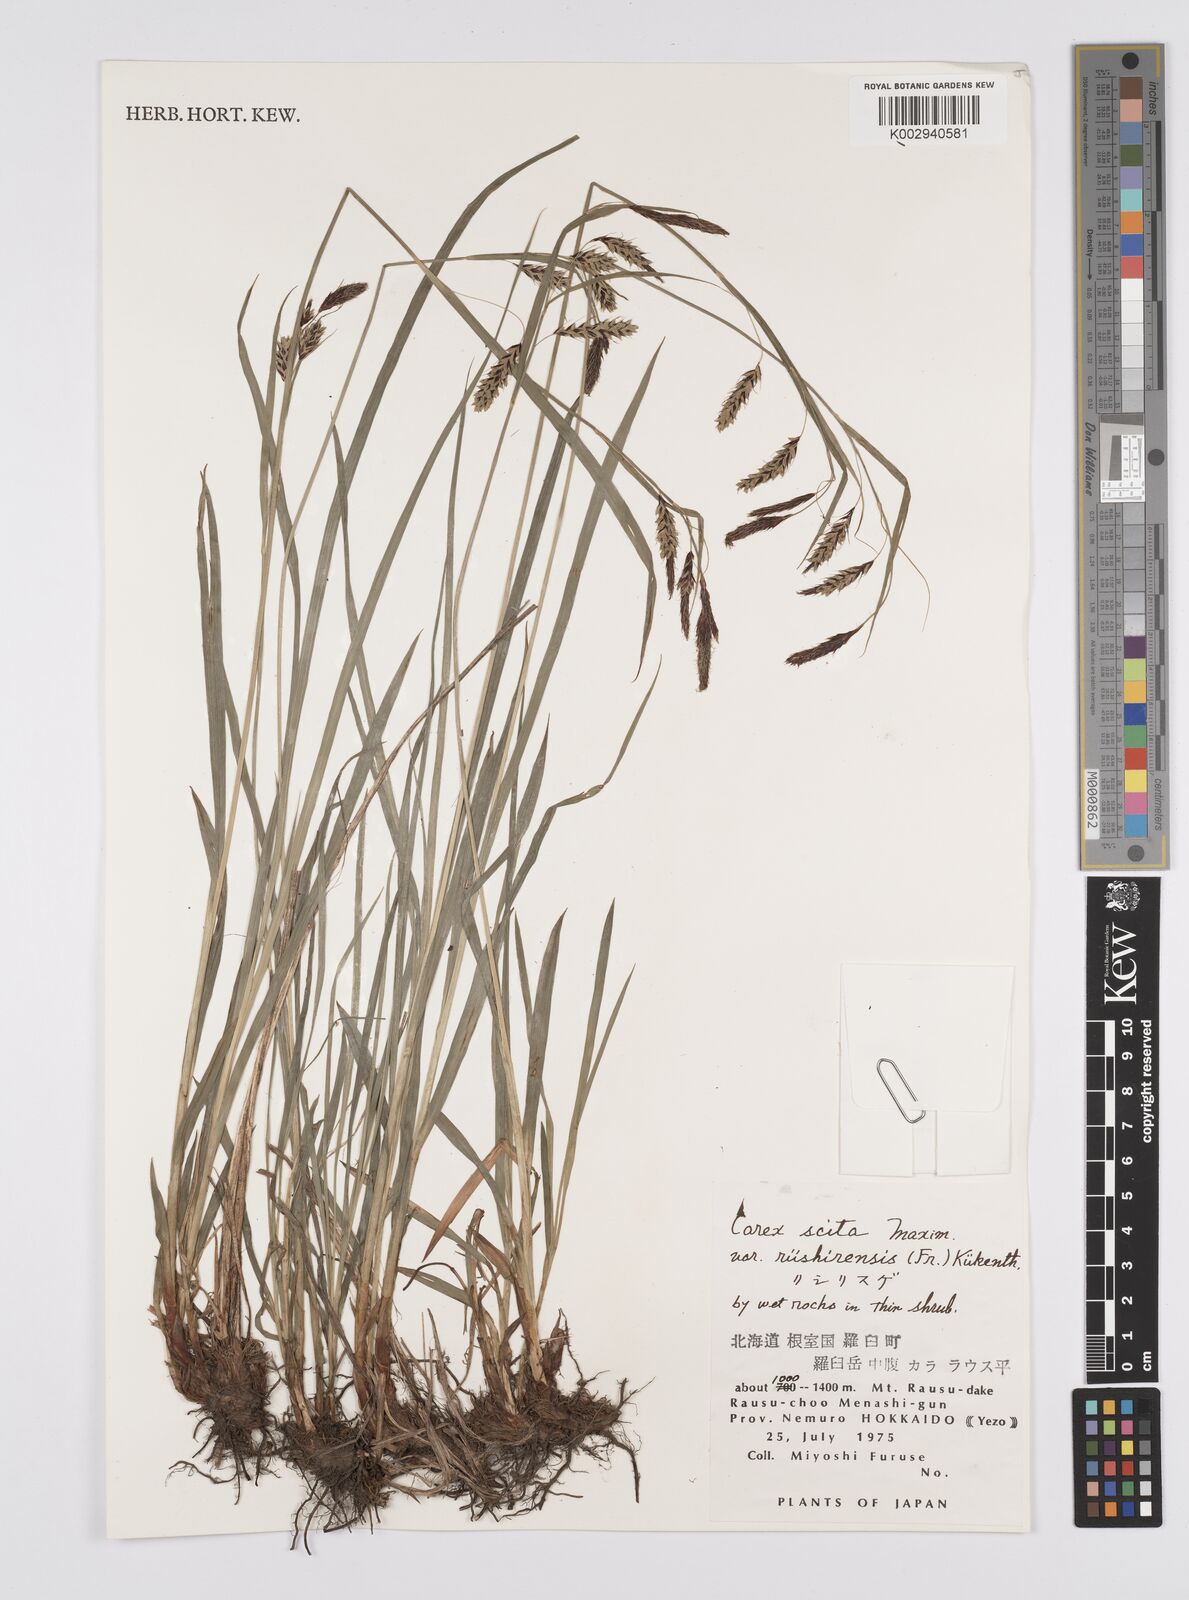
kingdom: Plantae
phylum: Tracheophyta
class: Liliopsida
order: Poales
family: Cyperaceae
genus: Carex
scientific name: Carex scita
